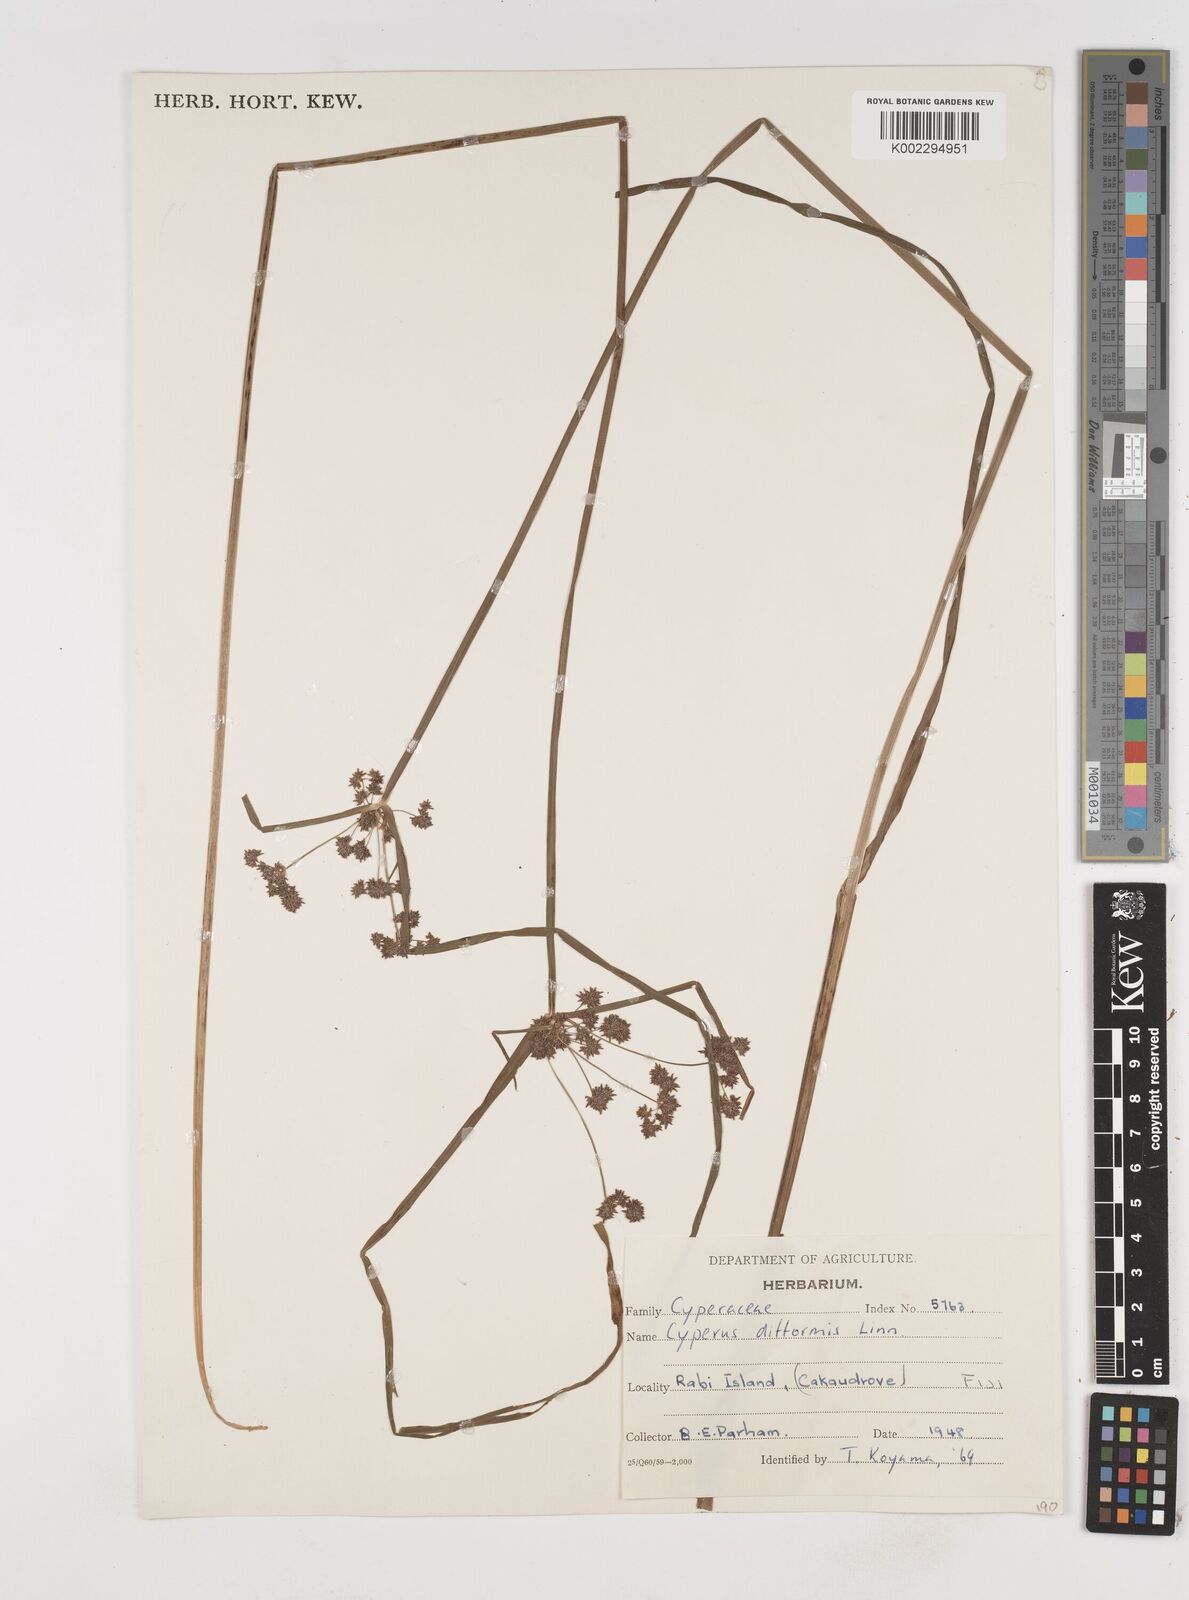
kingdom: Plantae
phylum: Tracheophyta
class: Liliopsida
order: Poales
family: Cyperaceae
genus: Cyperus
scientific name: Cyperus difformis
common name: Variable flatsedge
